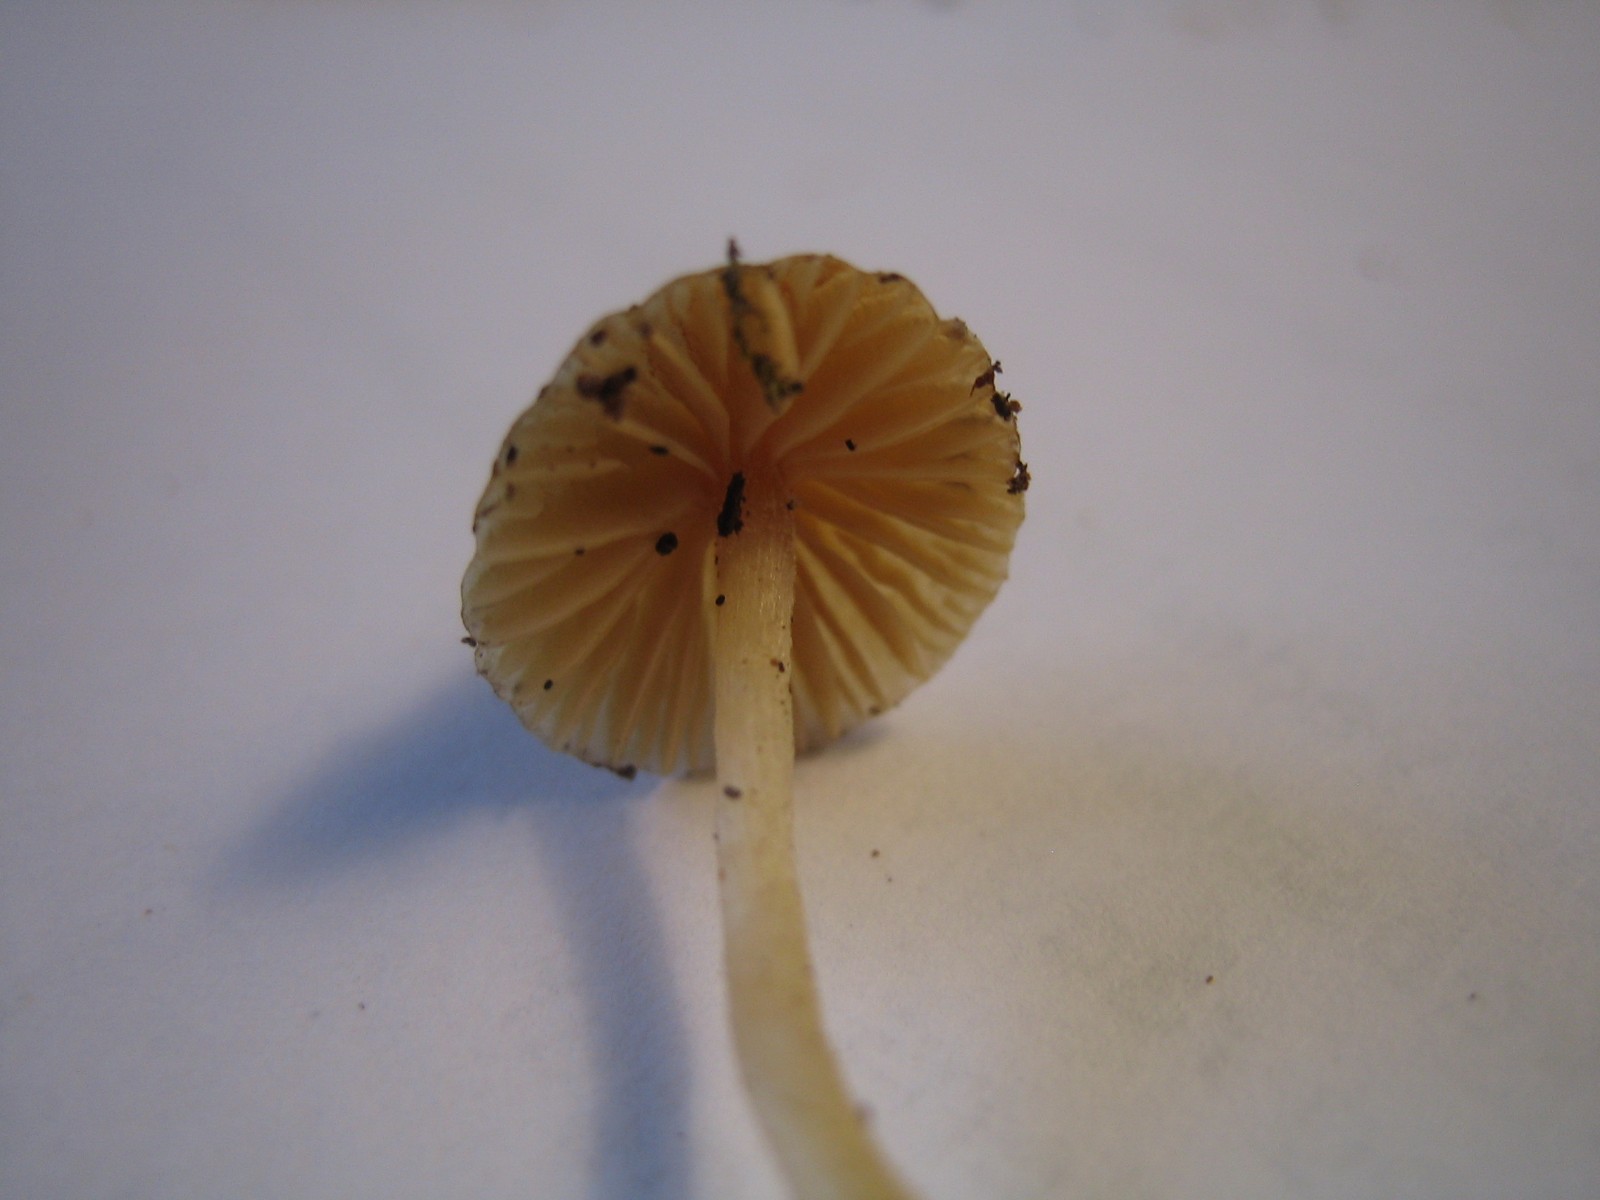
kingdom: Fungi
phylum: Basidiomycota
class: Agaricomycetes
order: Agaricales
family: Hymenogastraceae
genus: Galerina
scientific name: Galerina
